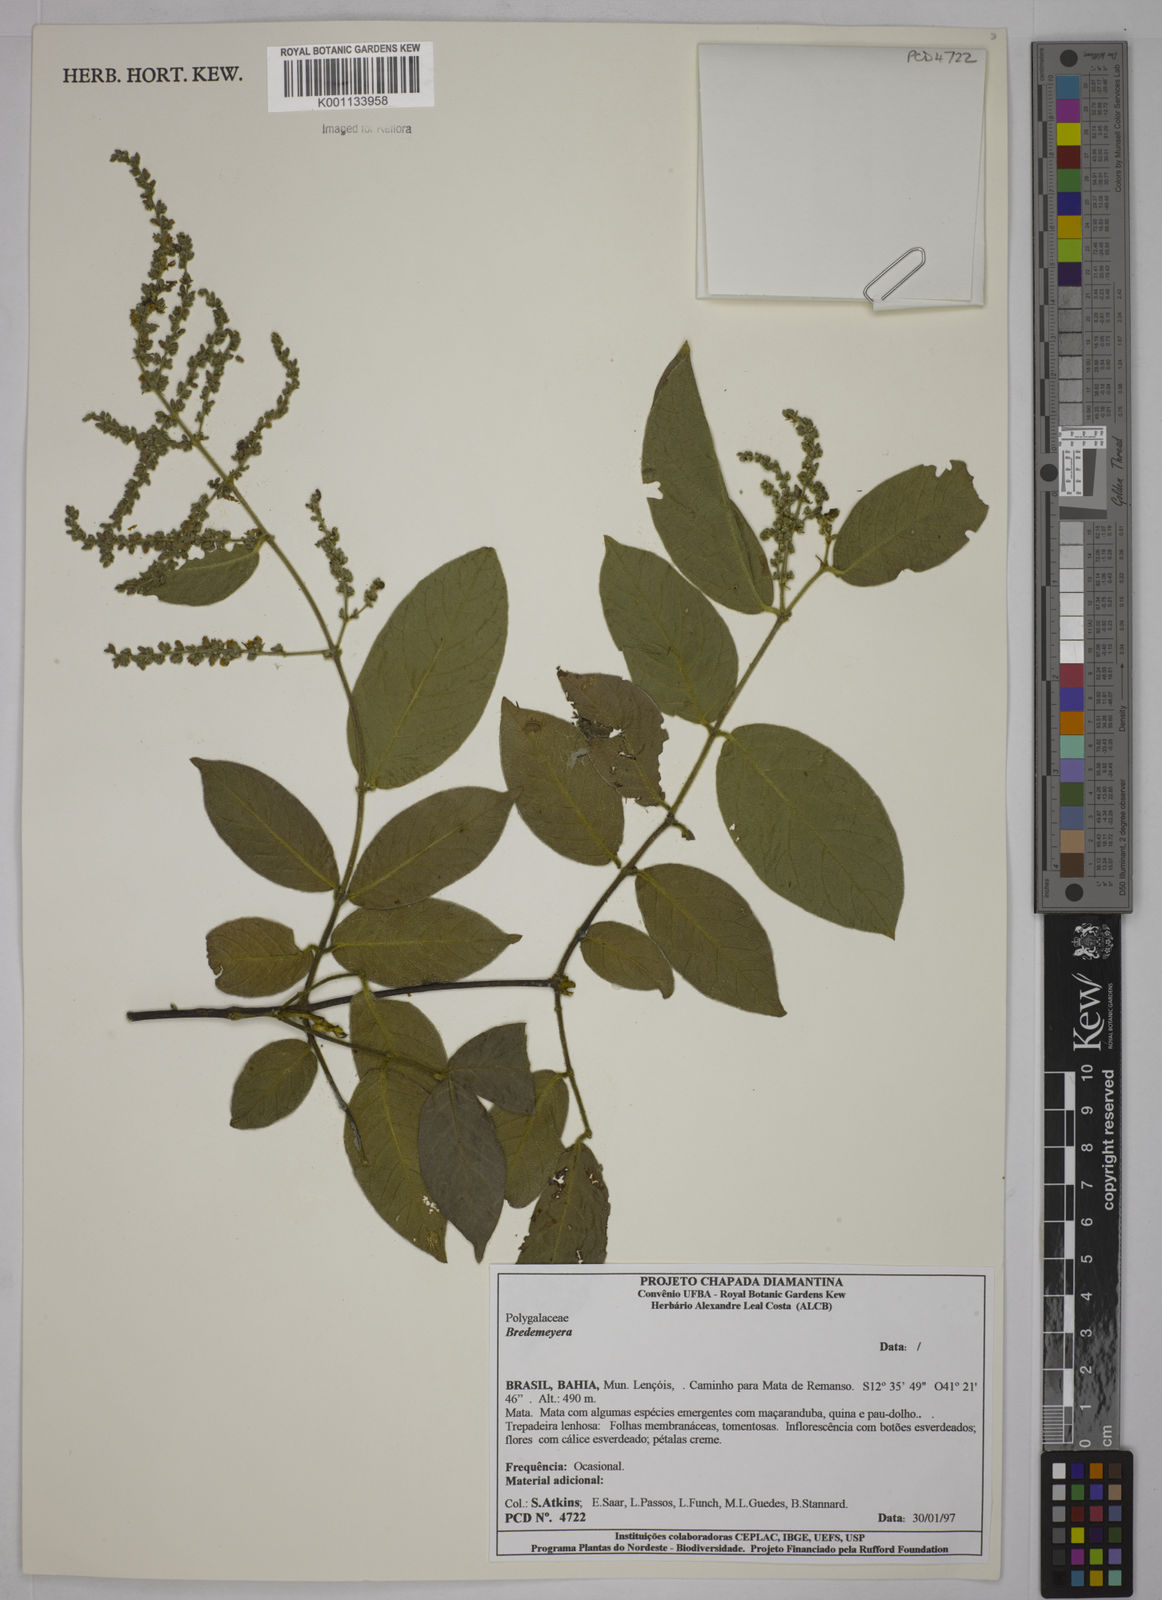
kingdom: Plantae
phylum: Tracheophyta
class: Magnoliopsida
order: Fabales
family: Polygalaceae
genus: Bredemeyera
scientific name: Bredemeyera
